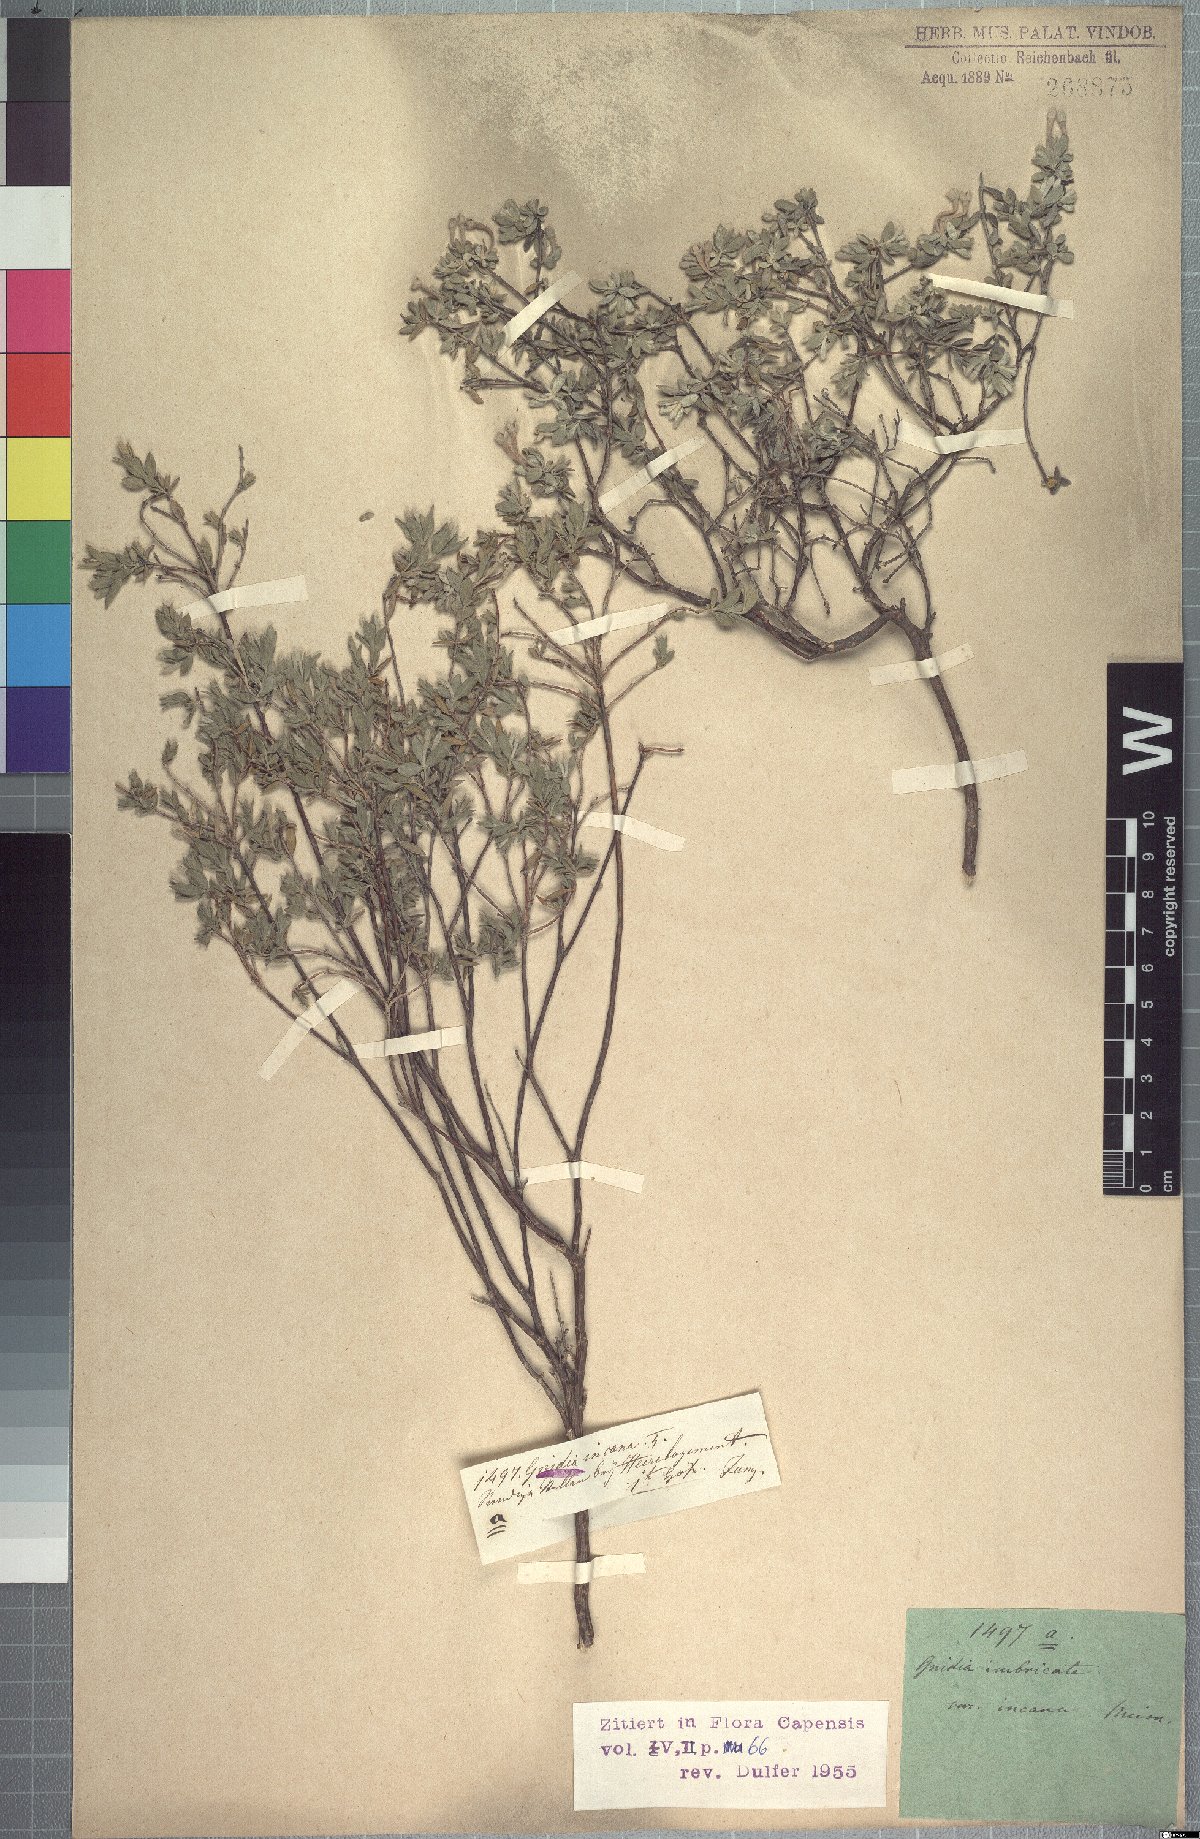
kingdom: Plantae
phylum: Tracheophyta
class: Magnoliopsida
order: Malvales
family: Thymelaeaceae
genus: Gnidia
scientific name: Gnidia imbricata
